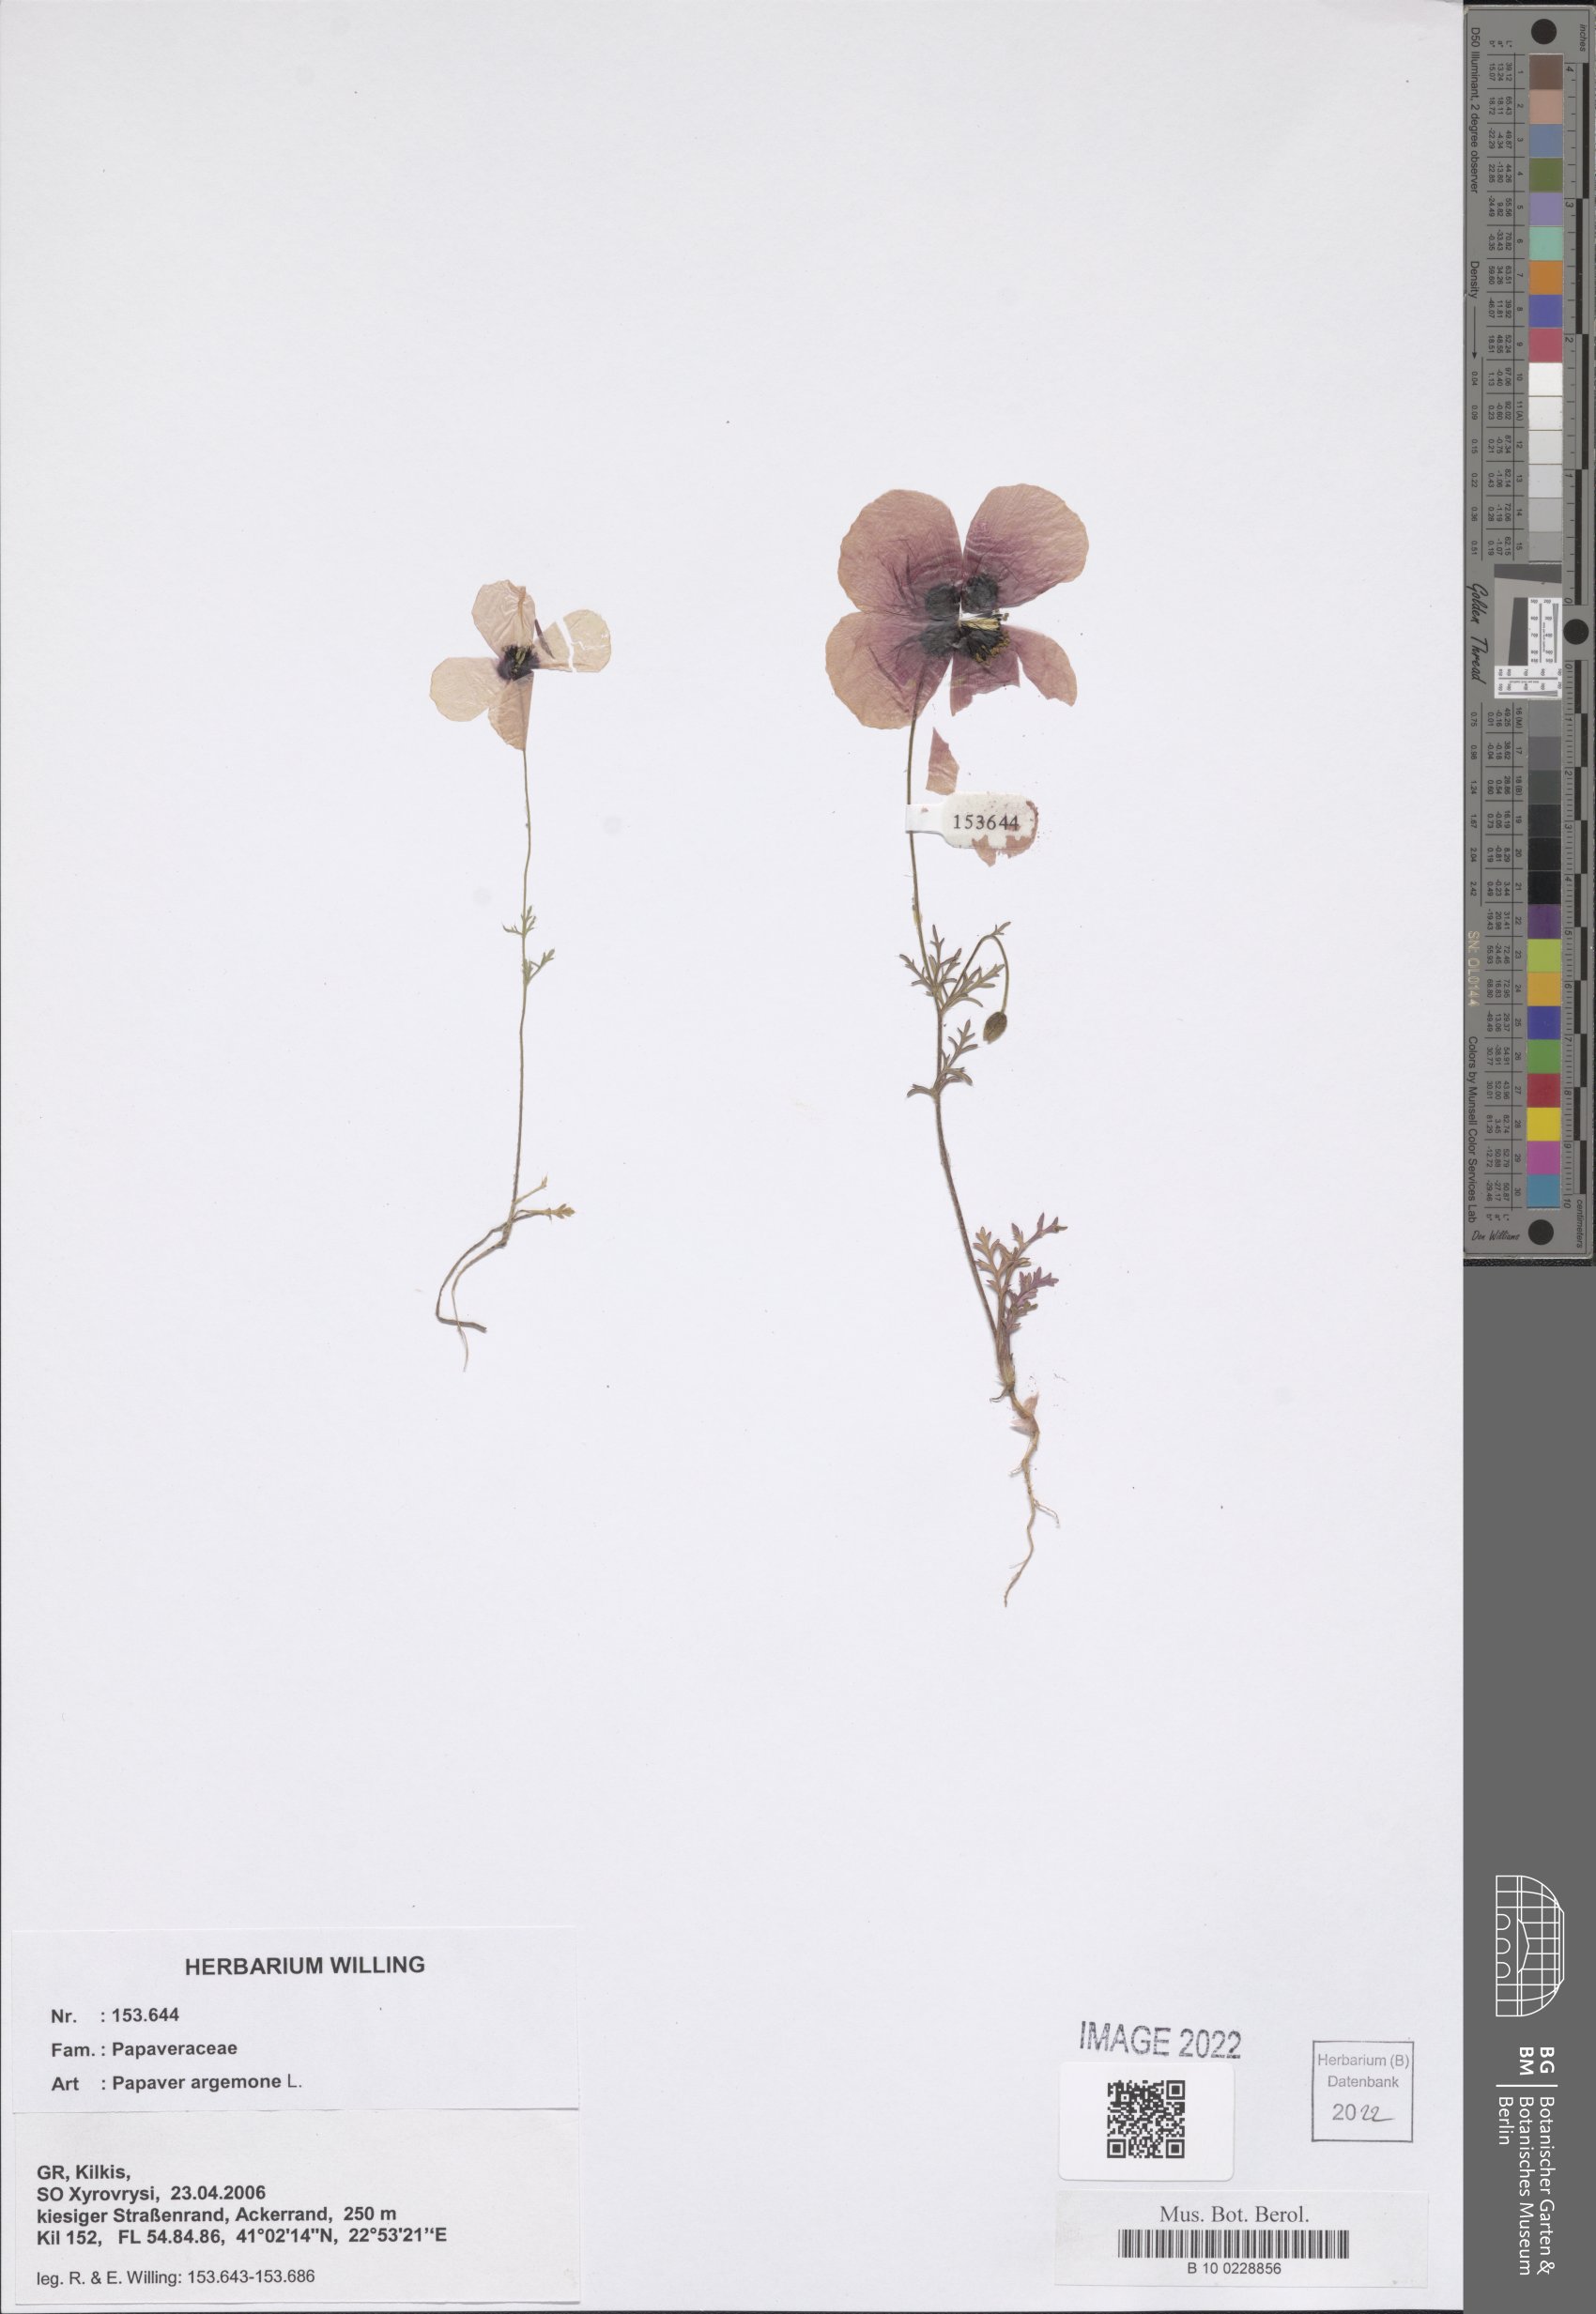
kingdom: Plantae
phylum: Tracheophyta
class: Magnoliopsida
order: Ranunculales
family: Papaveraceae
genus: Roemeria
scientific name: Roemeria argemone
